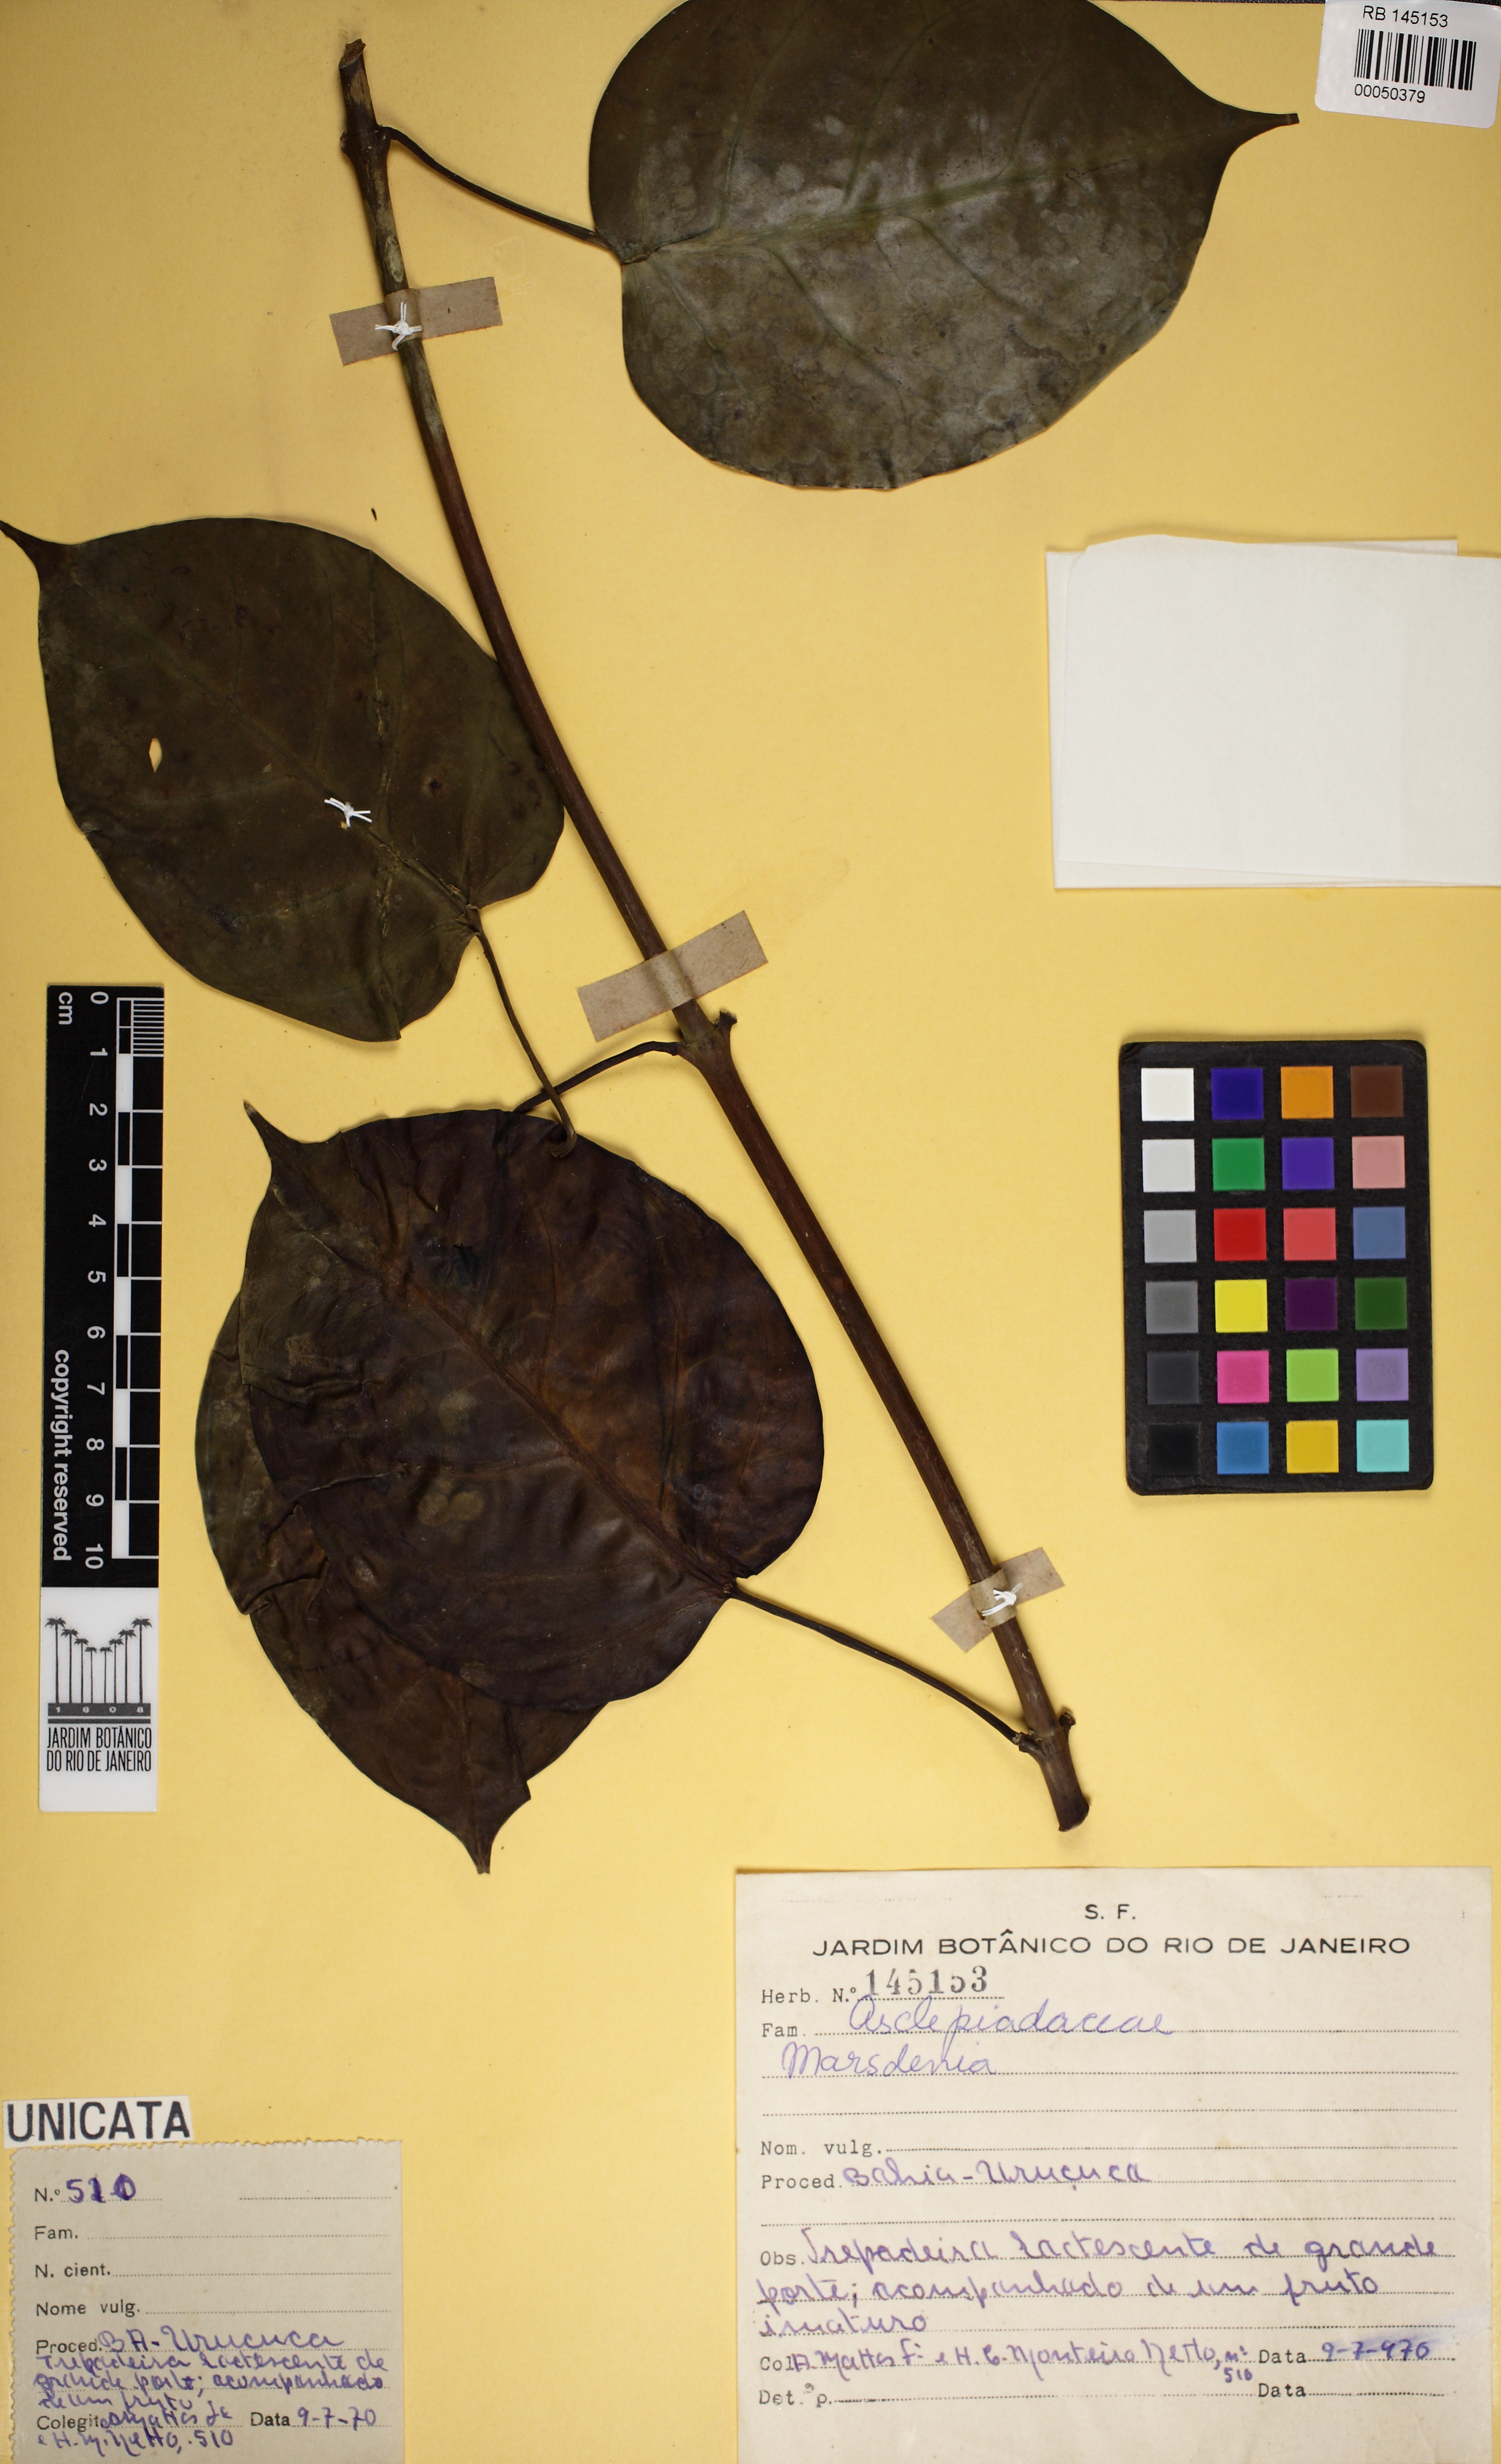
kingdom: Plantae
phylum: Tracheophyta
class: Magnoliopsida
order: Gentianales
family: Apocynaceae
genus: Ruehssia
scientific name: Ruehssia macrophylla
